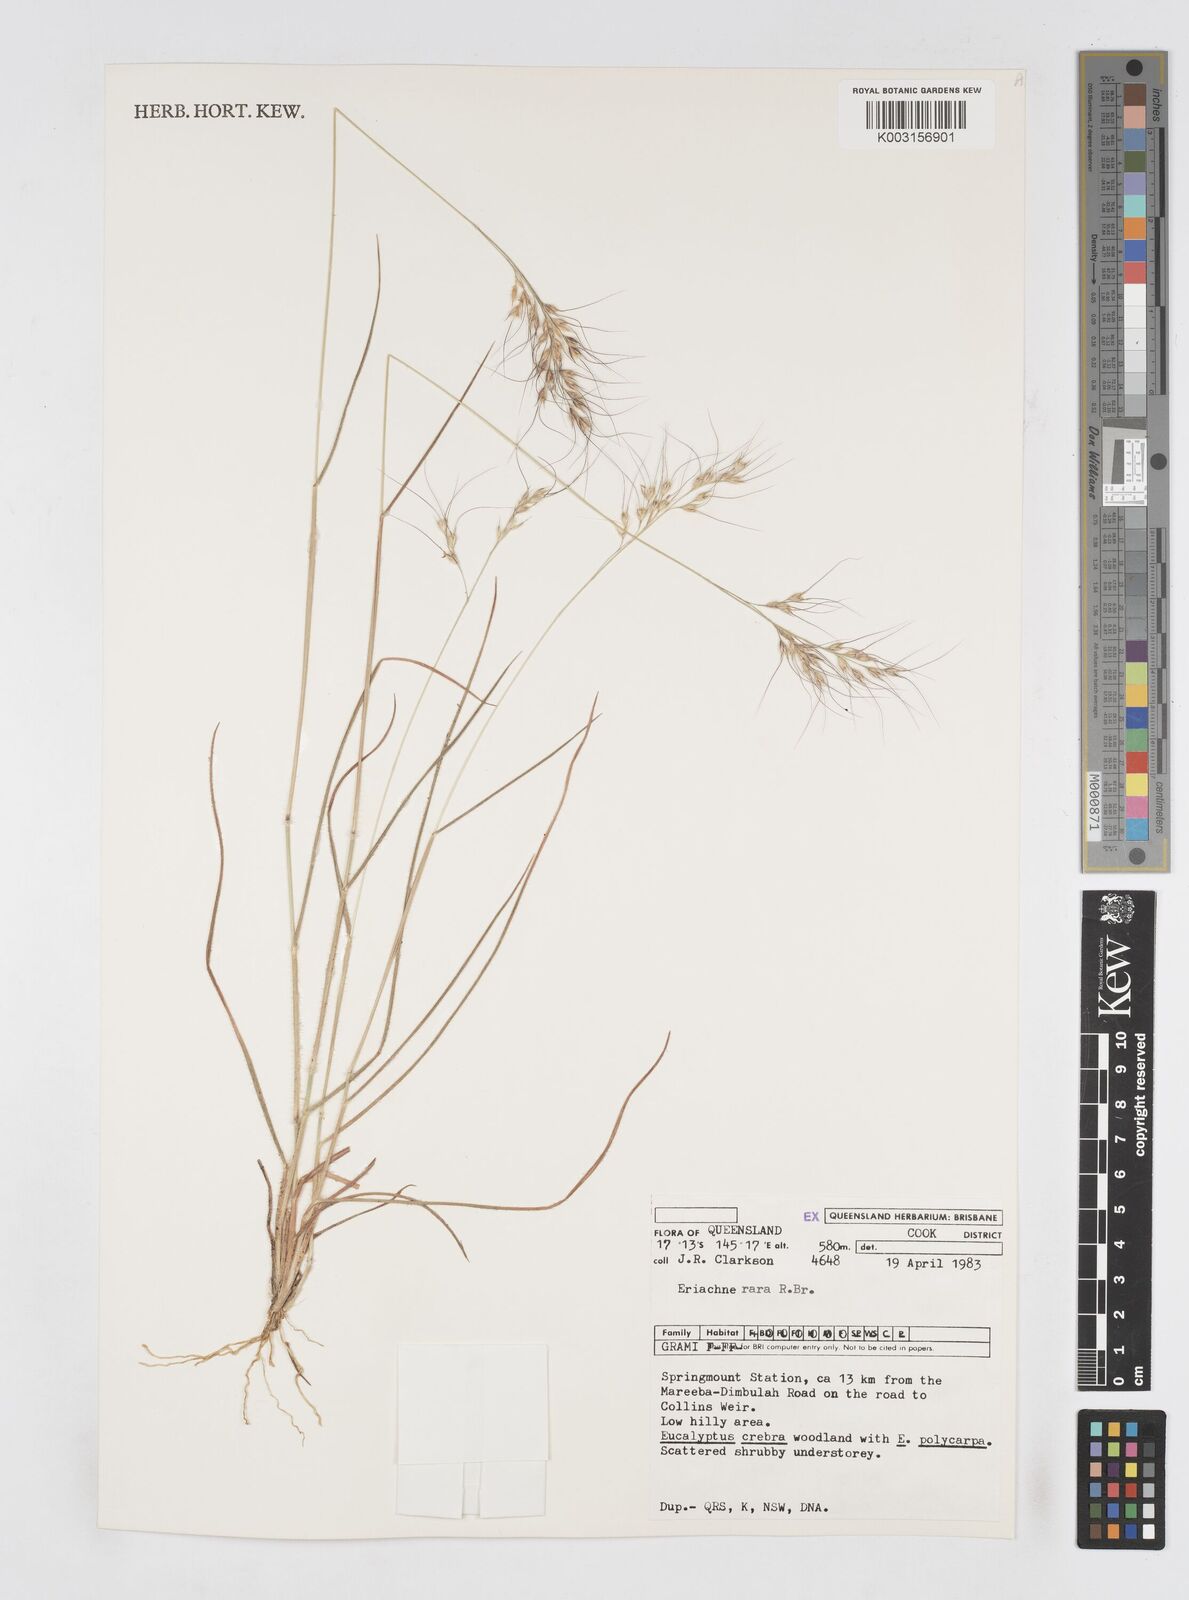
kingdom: Plantae
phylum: Tracheophyta
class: Liliopsida
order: Poales
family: Poaceae
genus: Eriachne
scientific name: Eriachne rara
